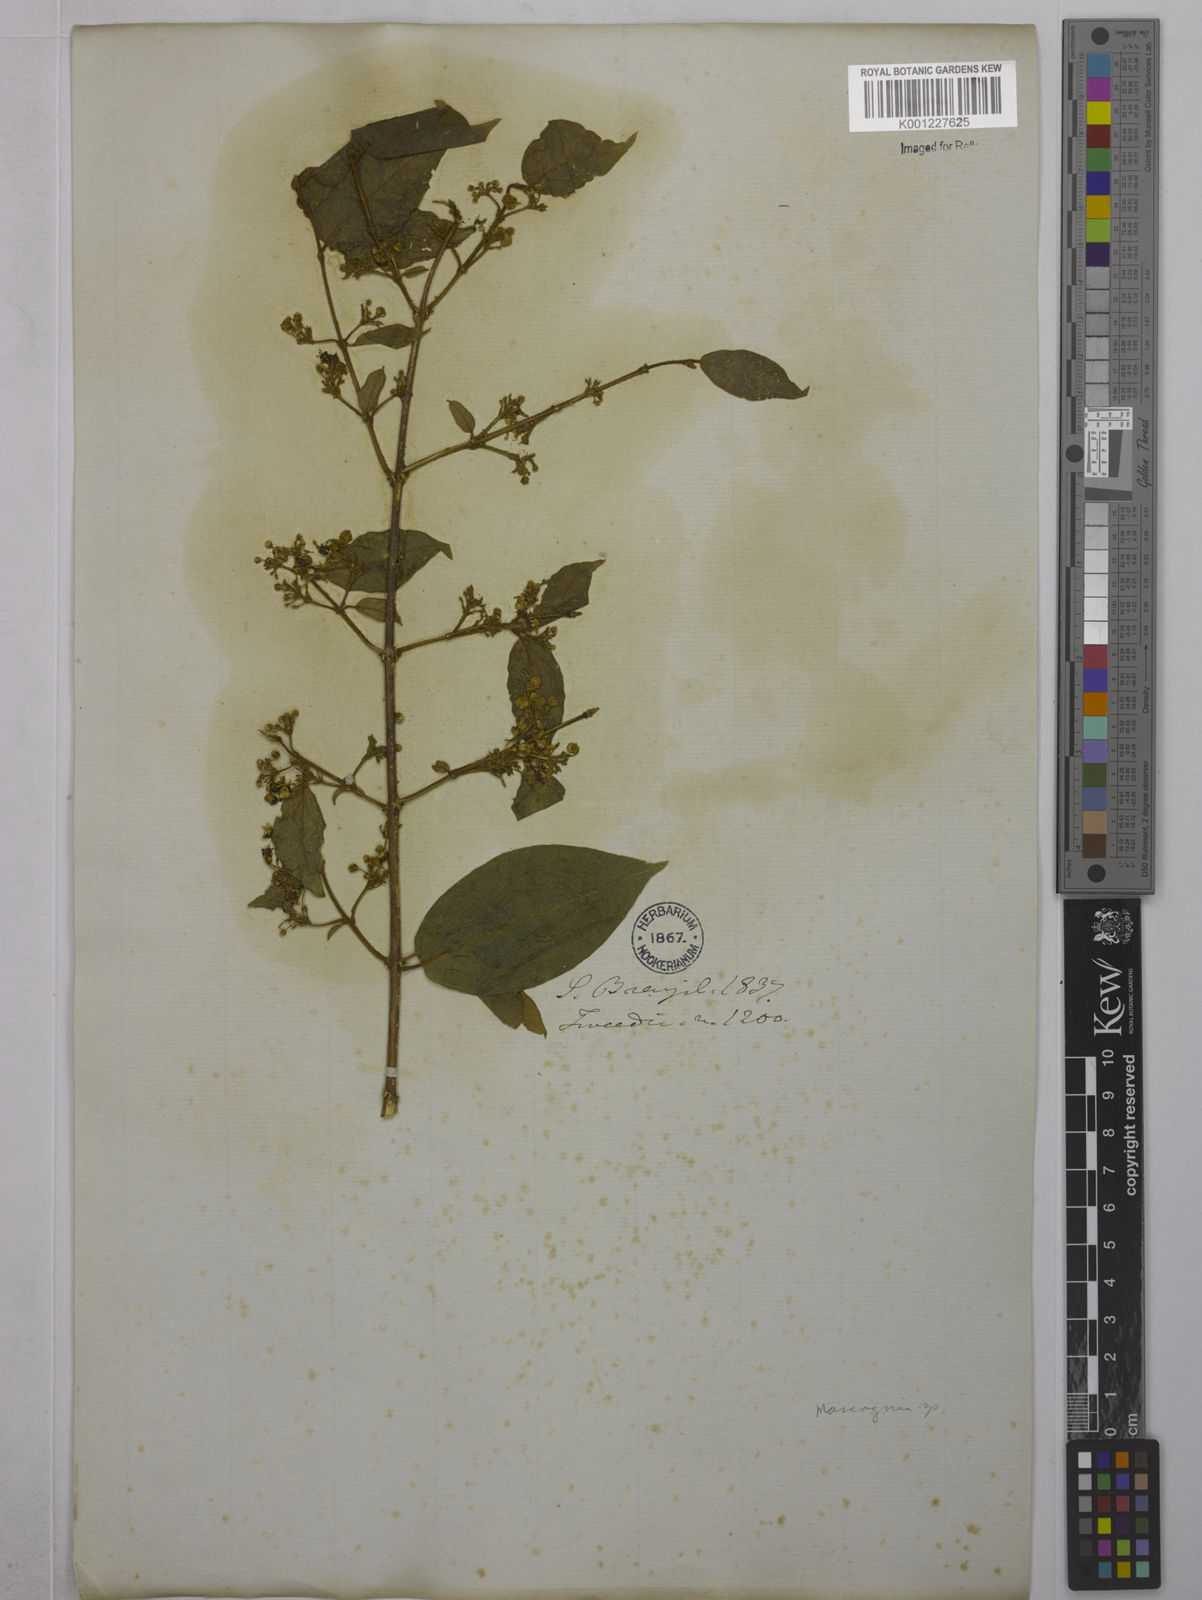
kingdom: Plantae
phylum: Tracheophyta
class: Magnoliopsida
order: Malpighiales
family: Malpighiaceae
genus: Mascagnia
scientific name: Mascagnia
